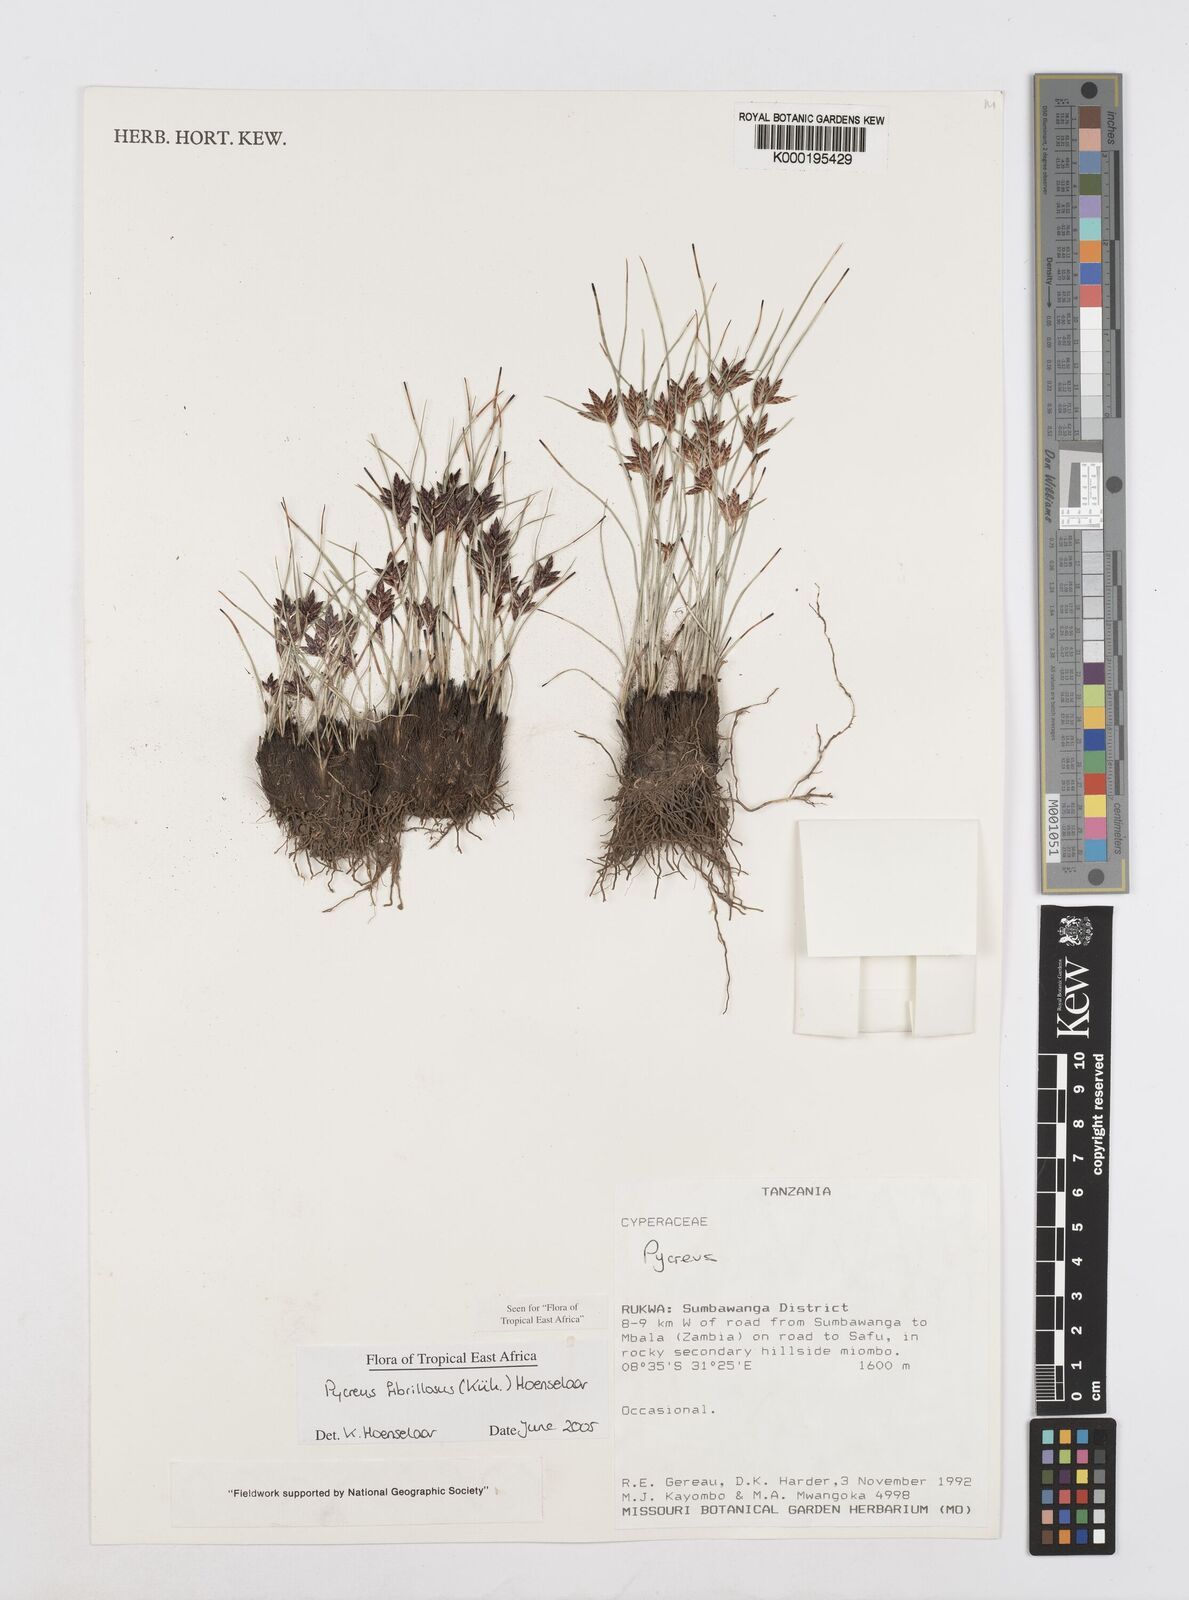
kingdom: Plantae
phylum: Tracheophyta
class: Liliopsida
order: Poales
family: Cyperaceae
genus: Cyperus
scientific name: Cyperus
